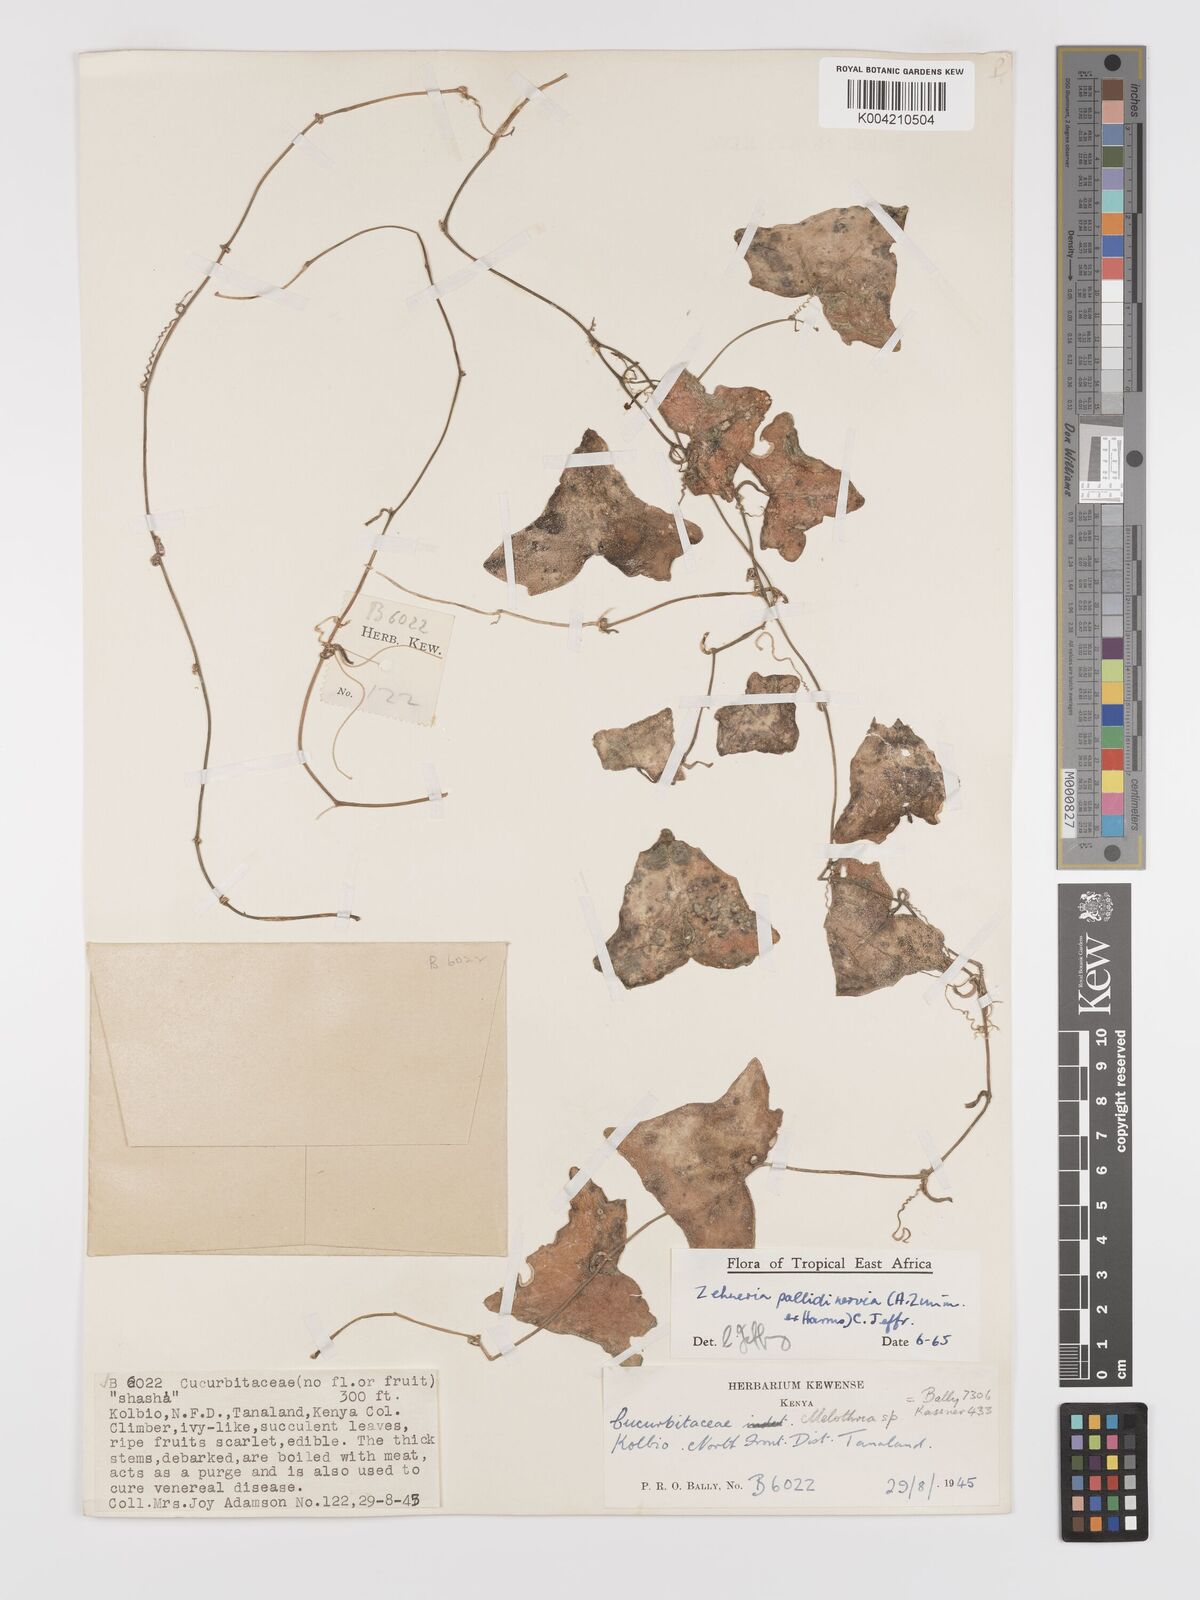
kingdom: Plantae
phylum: Tracheophyta
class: Magnoliopsida
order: Cucurbitales
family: Cucurbitaceae
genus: Zehneria
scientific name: Zehneria pallidinervia
